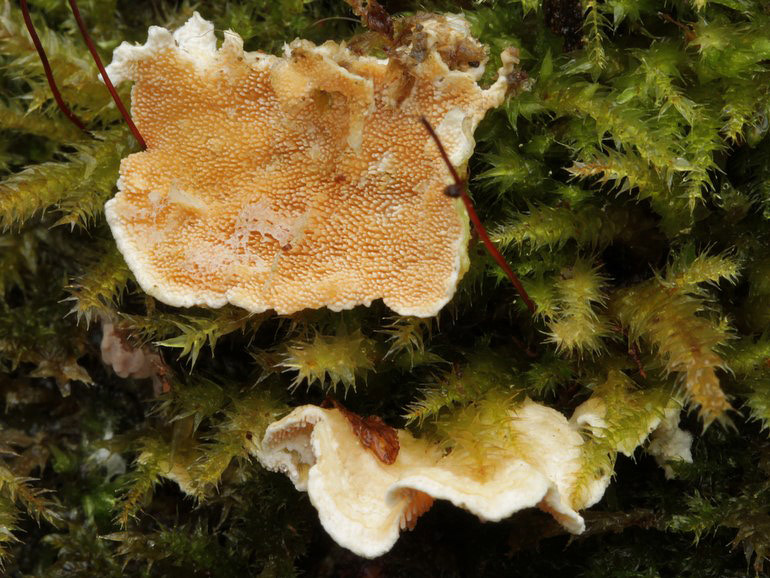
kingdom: Fungi
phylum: Basidiomycota
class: Agaricomycetes
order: Polyporales
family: Steccherinaceae
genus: Steccherinum
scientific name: Steccherinum ochraceum
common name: almindelig skønpig
